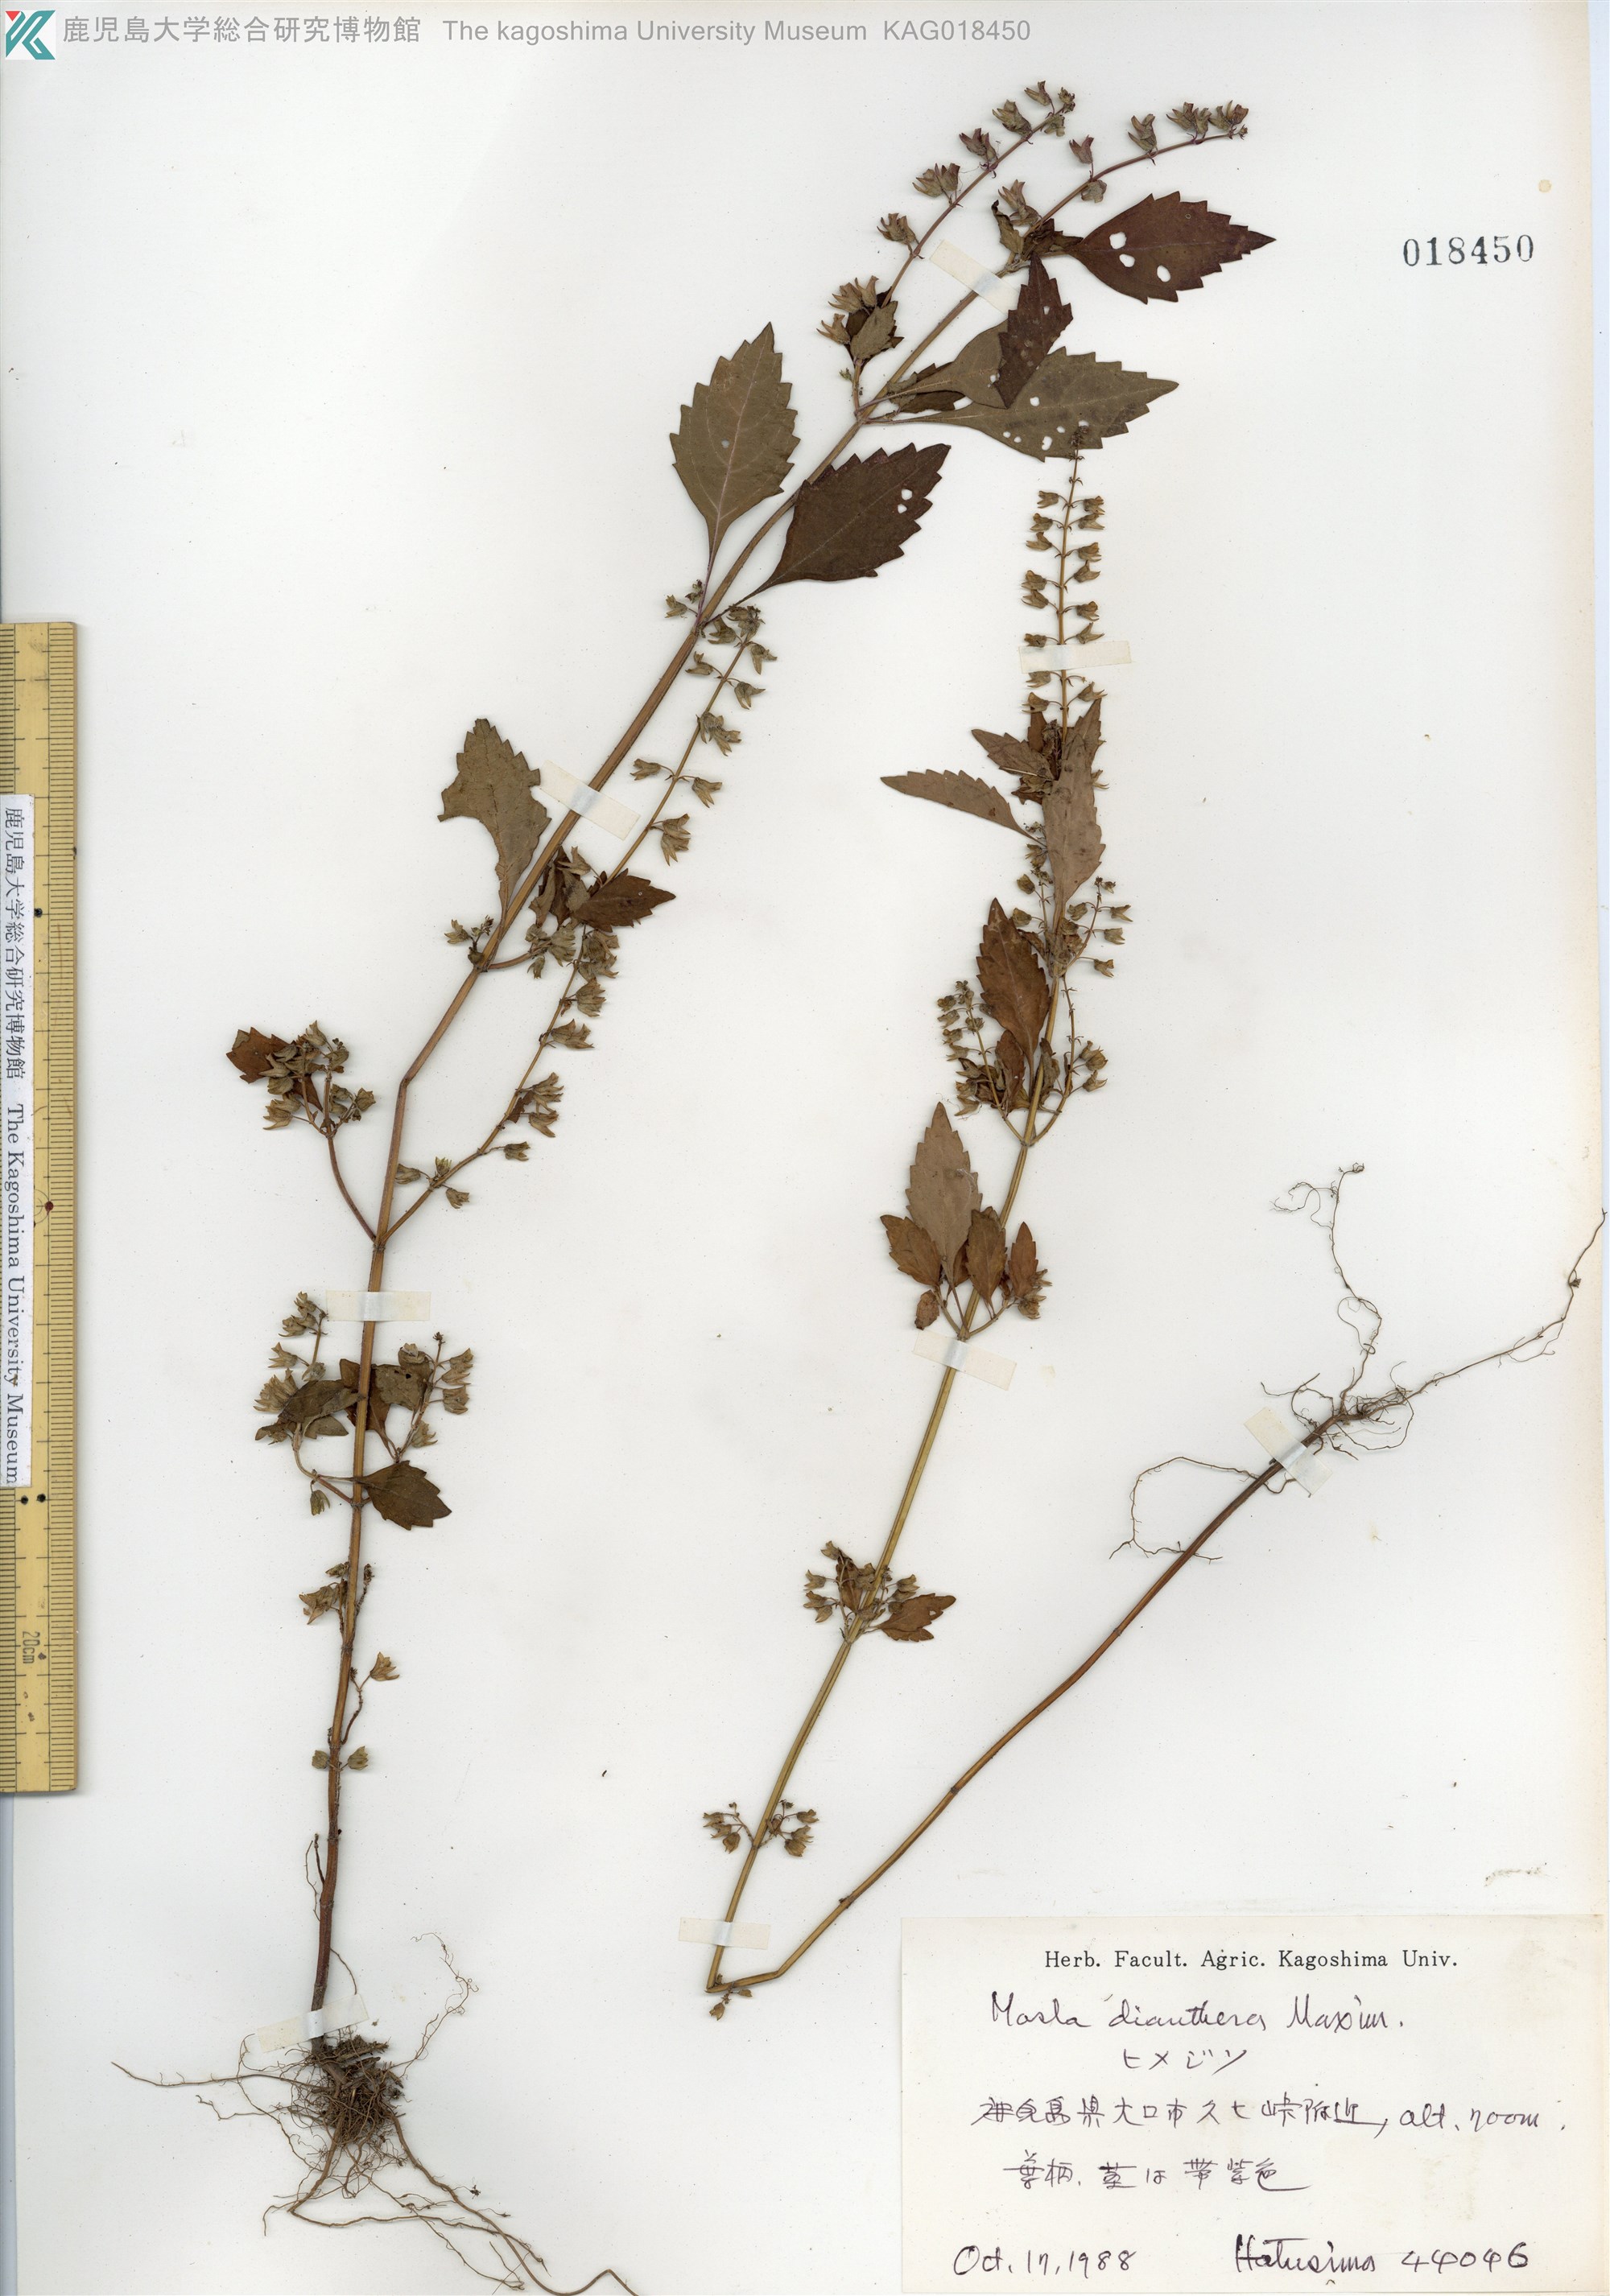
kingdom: Plantae
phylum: Tracheophyta
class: Magnoliopsida
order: Lamiales
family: Lamiaceae
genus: Mosla
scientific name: Mosla dianthera
